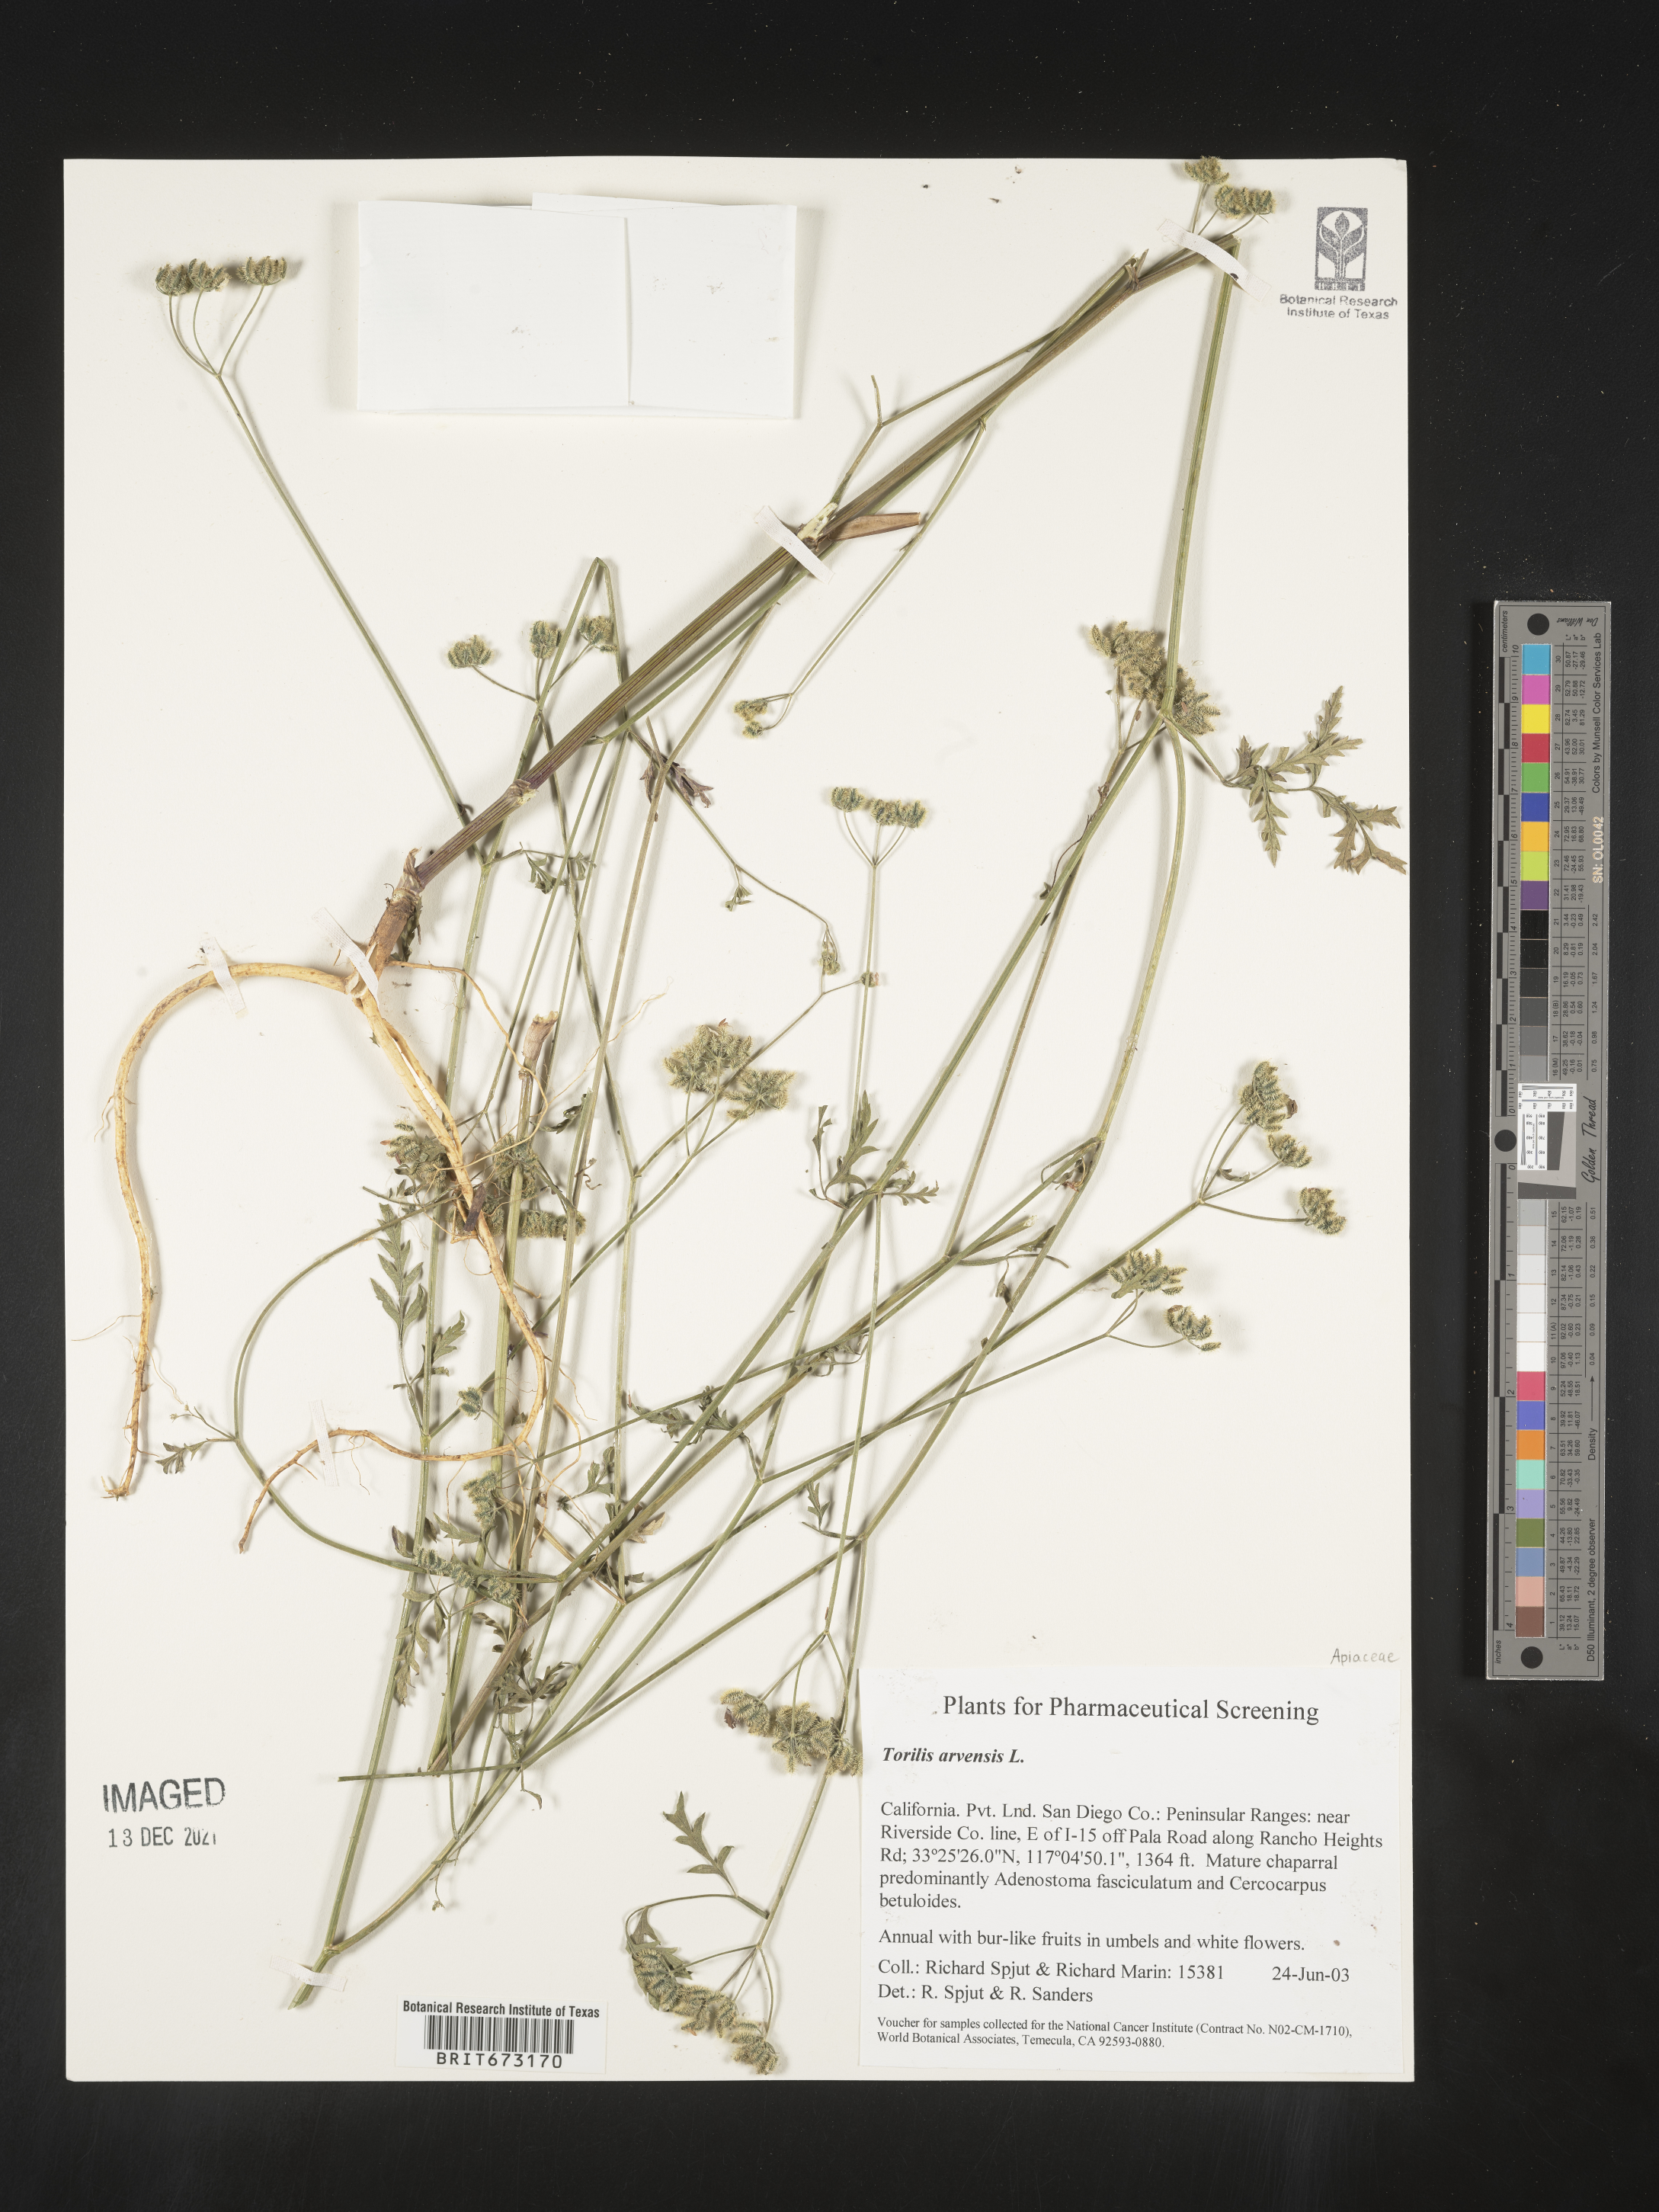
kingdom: Plantae
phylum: Tracheophyta
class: Magnoliopsida
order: Apiales
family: Apiaceae
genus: Torilis
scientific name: Torilis arvensis
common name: Spreading hedge-parsley
